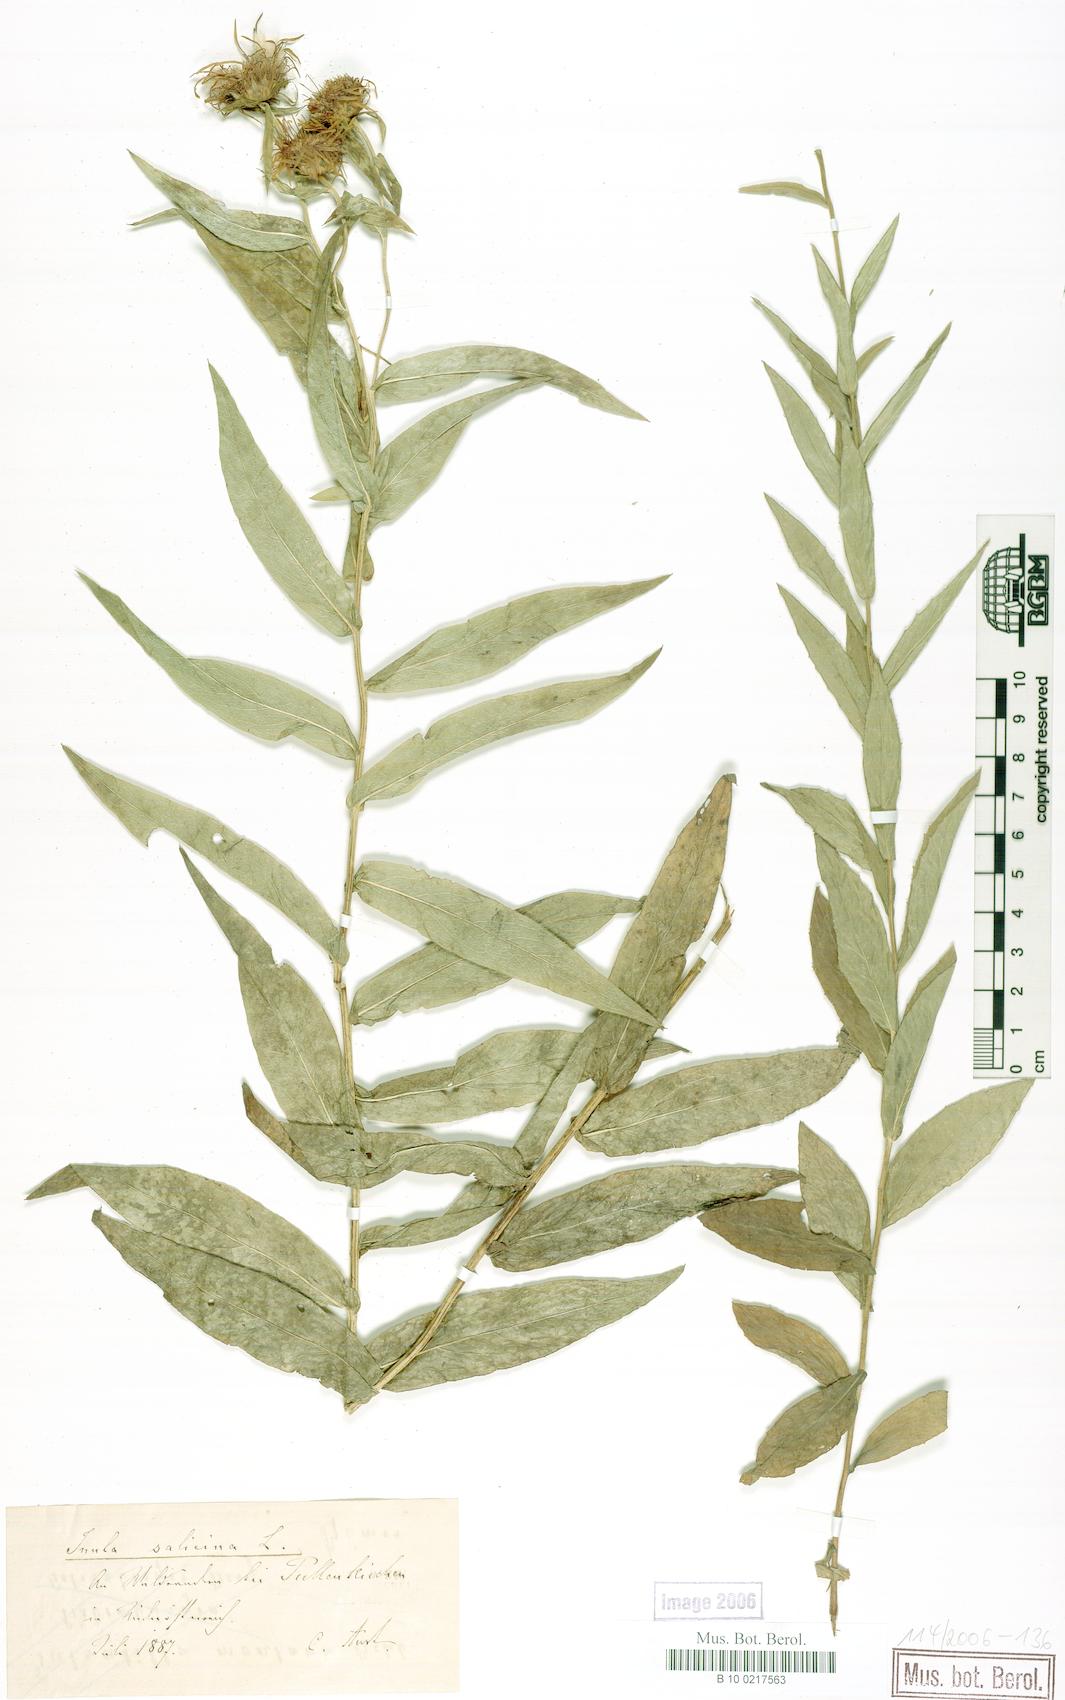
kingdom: Plantae
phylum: Tracheophyta
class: Magnoliopsida
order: Asterales
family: Asteraceae
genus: Pentanema
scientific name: Pentanema salicinum
